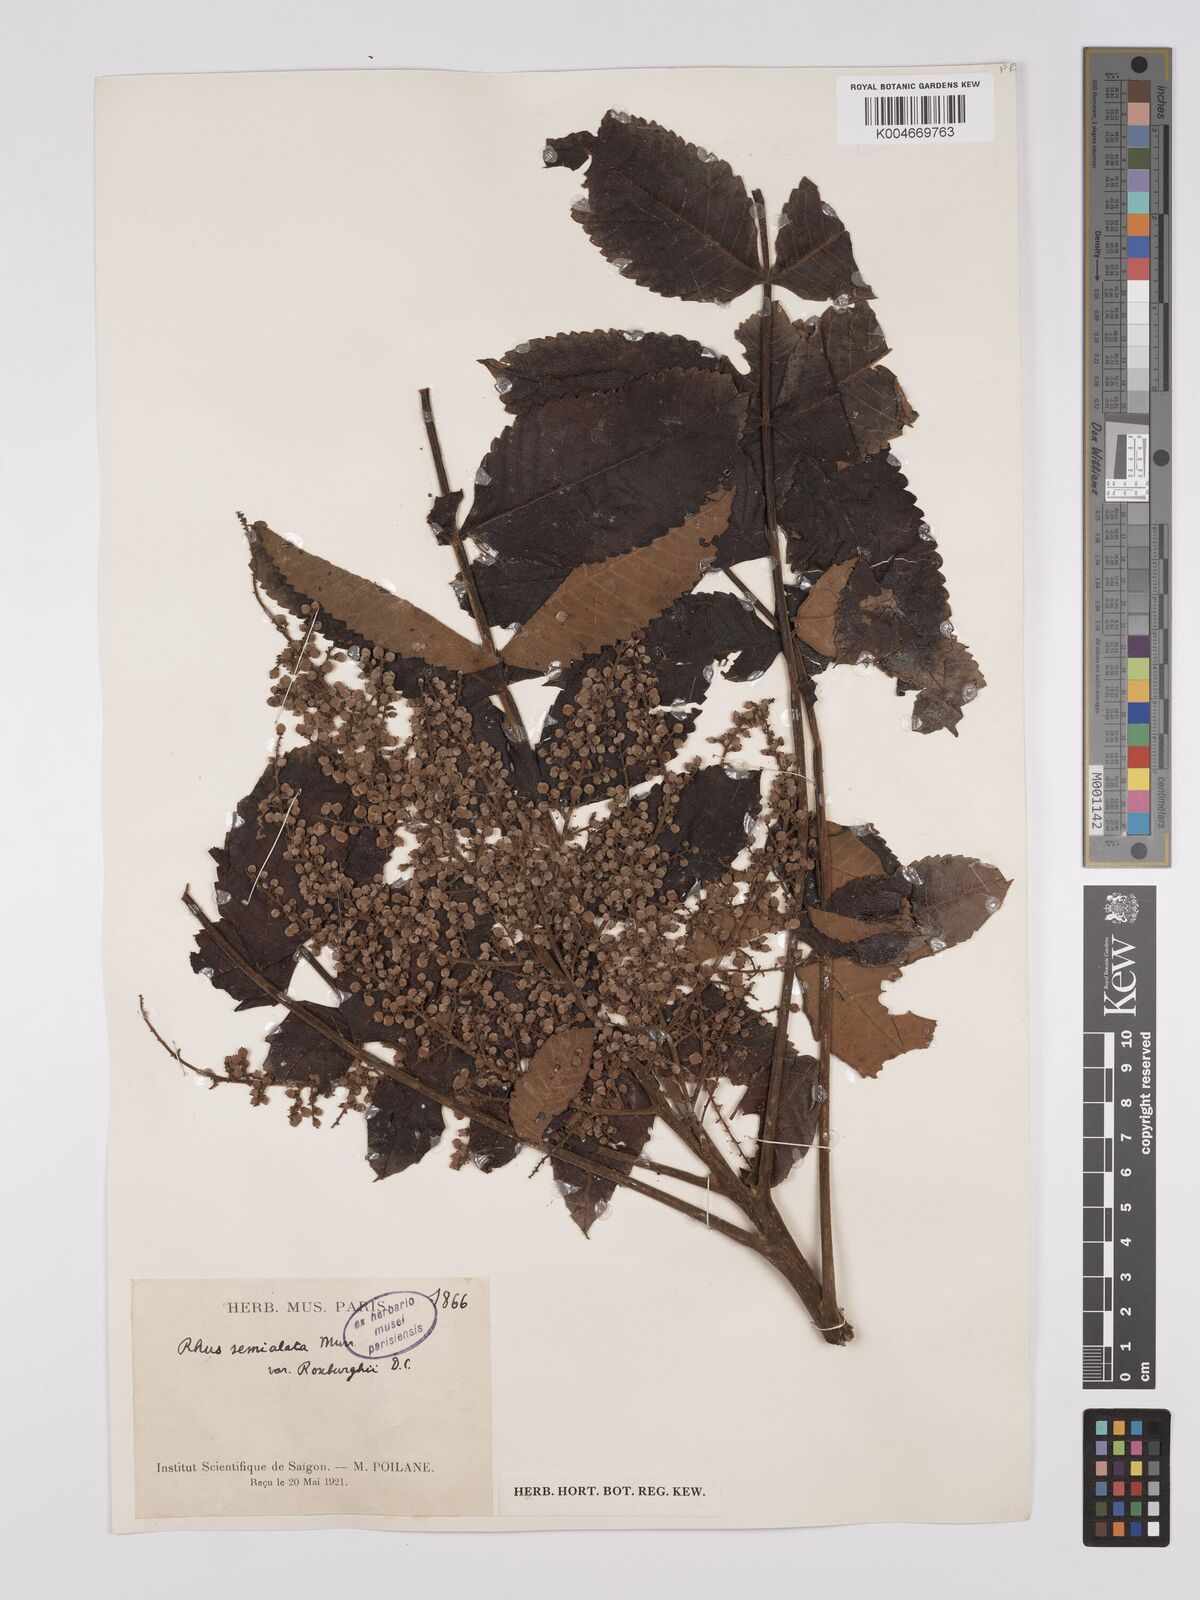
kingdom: Plantae
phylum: Tracheophyta
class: Magnoliopsida
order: Sapindales
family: Anacardiaceae
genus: Rhus
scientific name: Rhus chinensis
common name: Chinese gall
